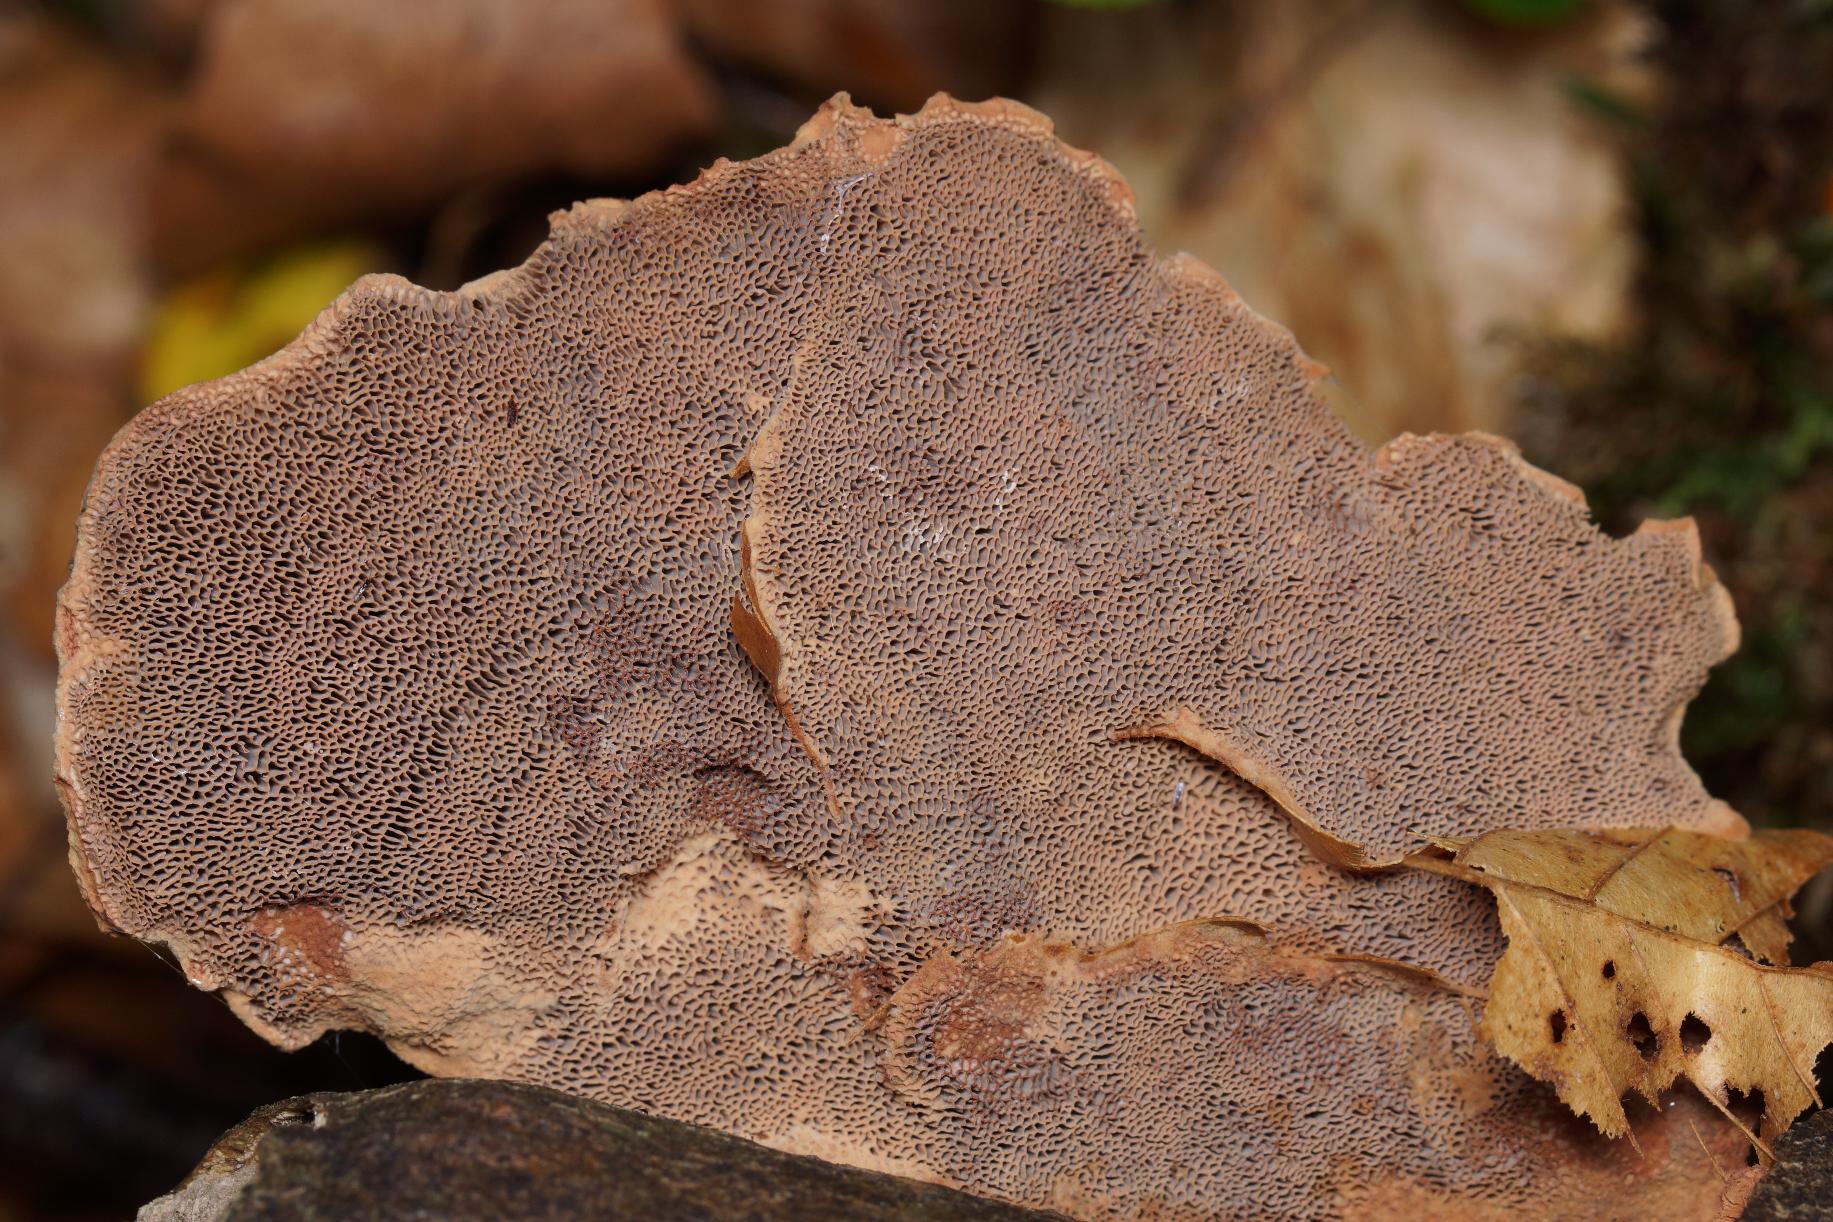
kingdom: Fungi
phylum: Basidiomycota
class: Agaricomycetes
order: Polyporales
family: Phanerochaetaceae
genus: Hapalopilus
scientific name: Hapalopilus rutilans
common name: Rødlig okkerporesvamp
